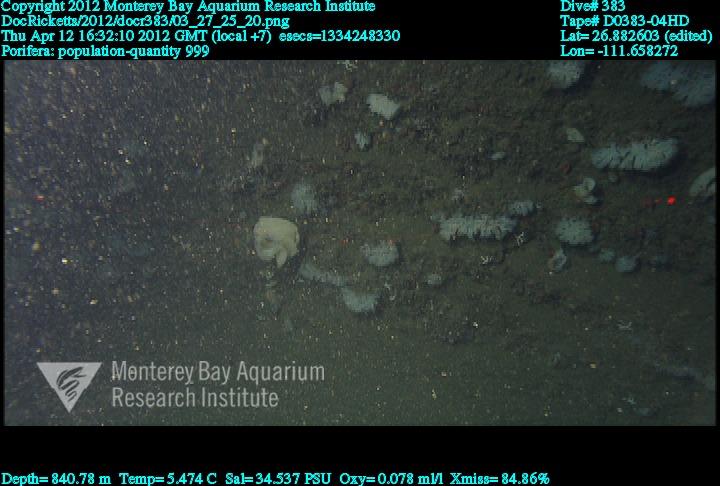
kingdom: Animalia
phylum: Porifera
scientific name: Porifera
